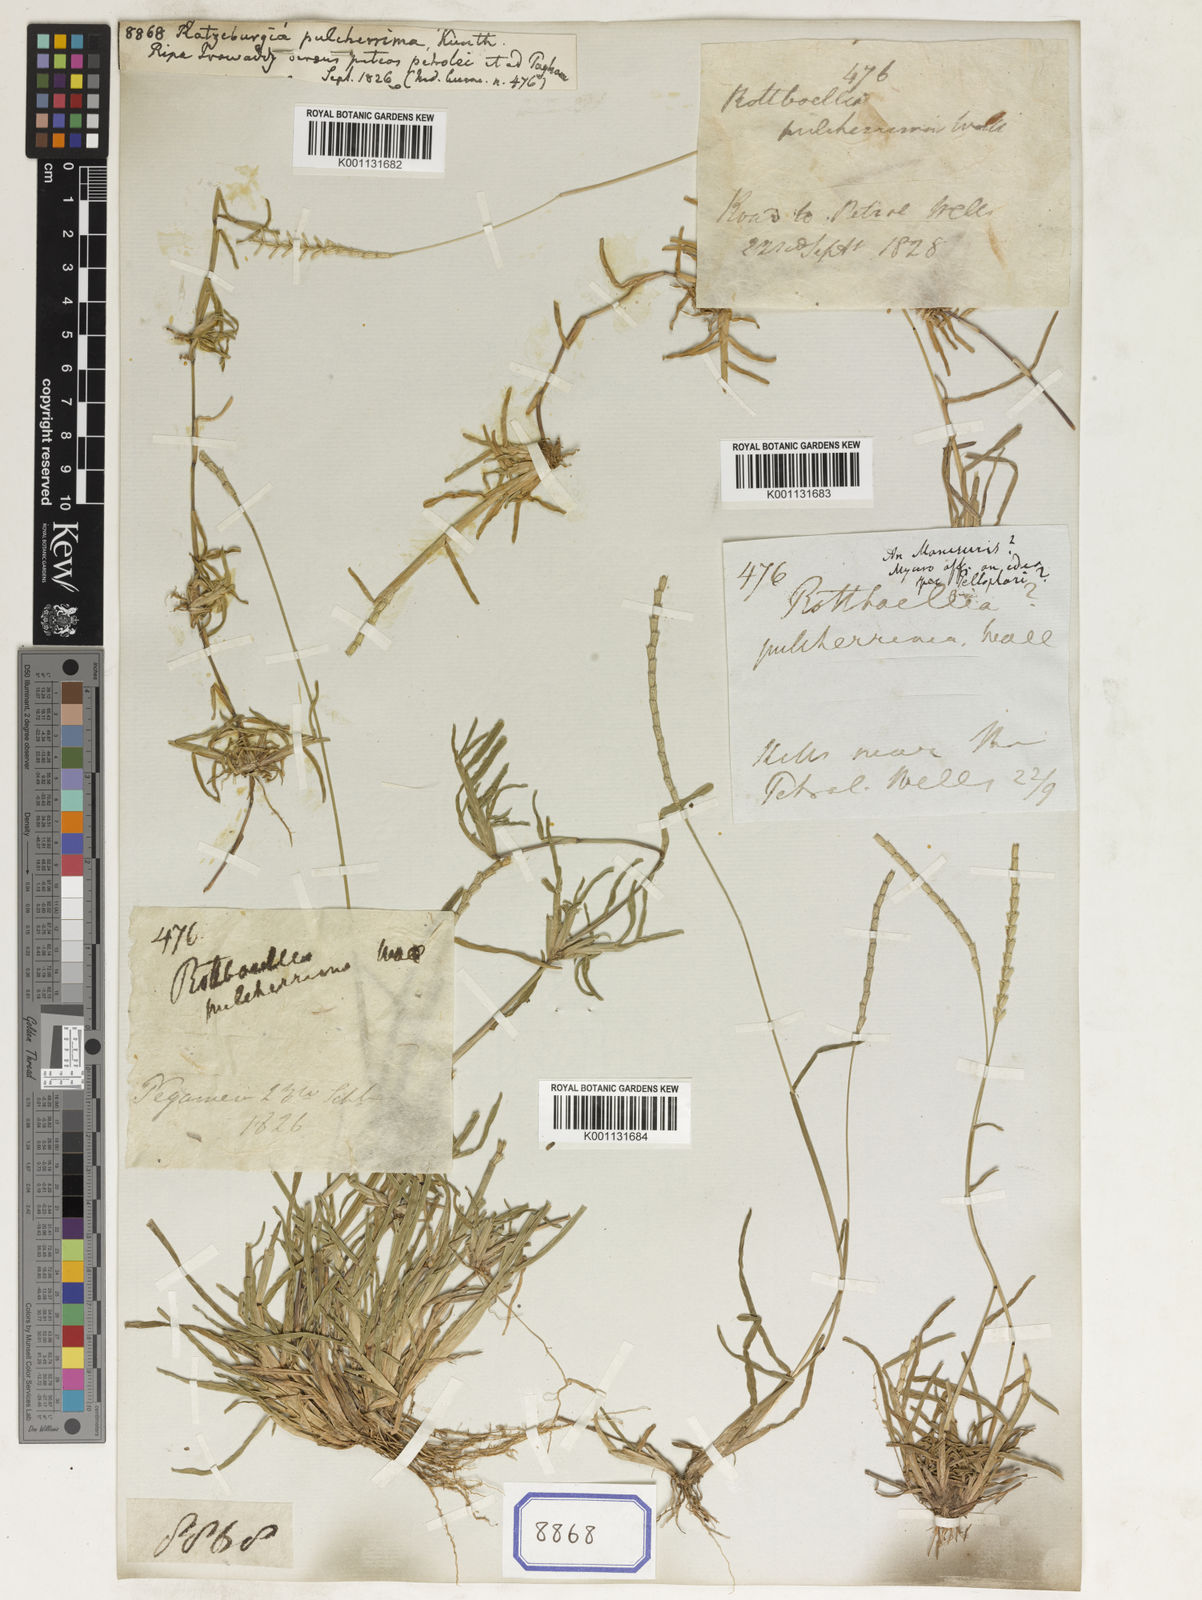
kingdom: Plantae
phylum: Tracheophyta
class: Liliopsida
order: Poales
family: Poaceae
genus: Ratzeburgia
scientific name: Ratzeburgia pulcherrima
